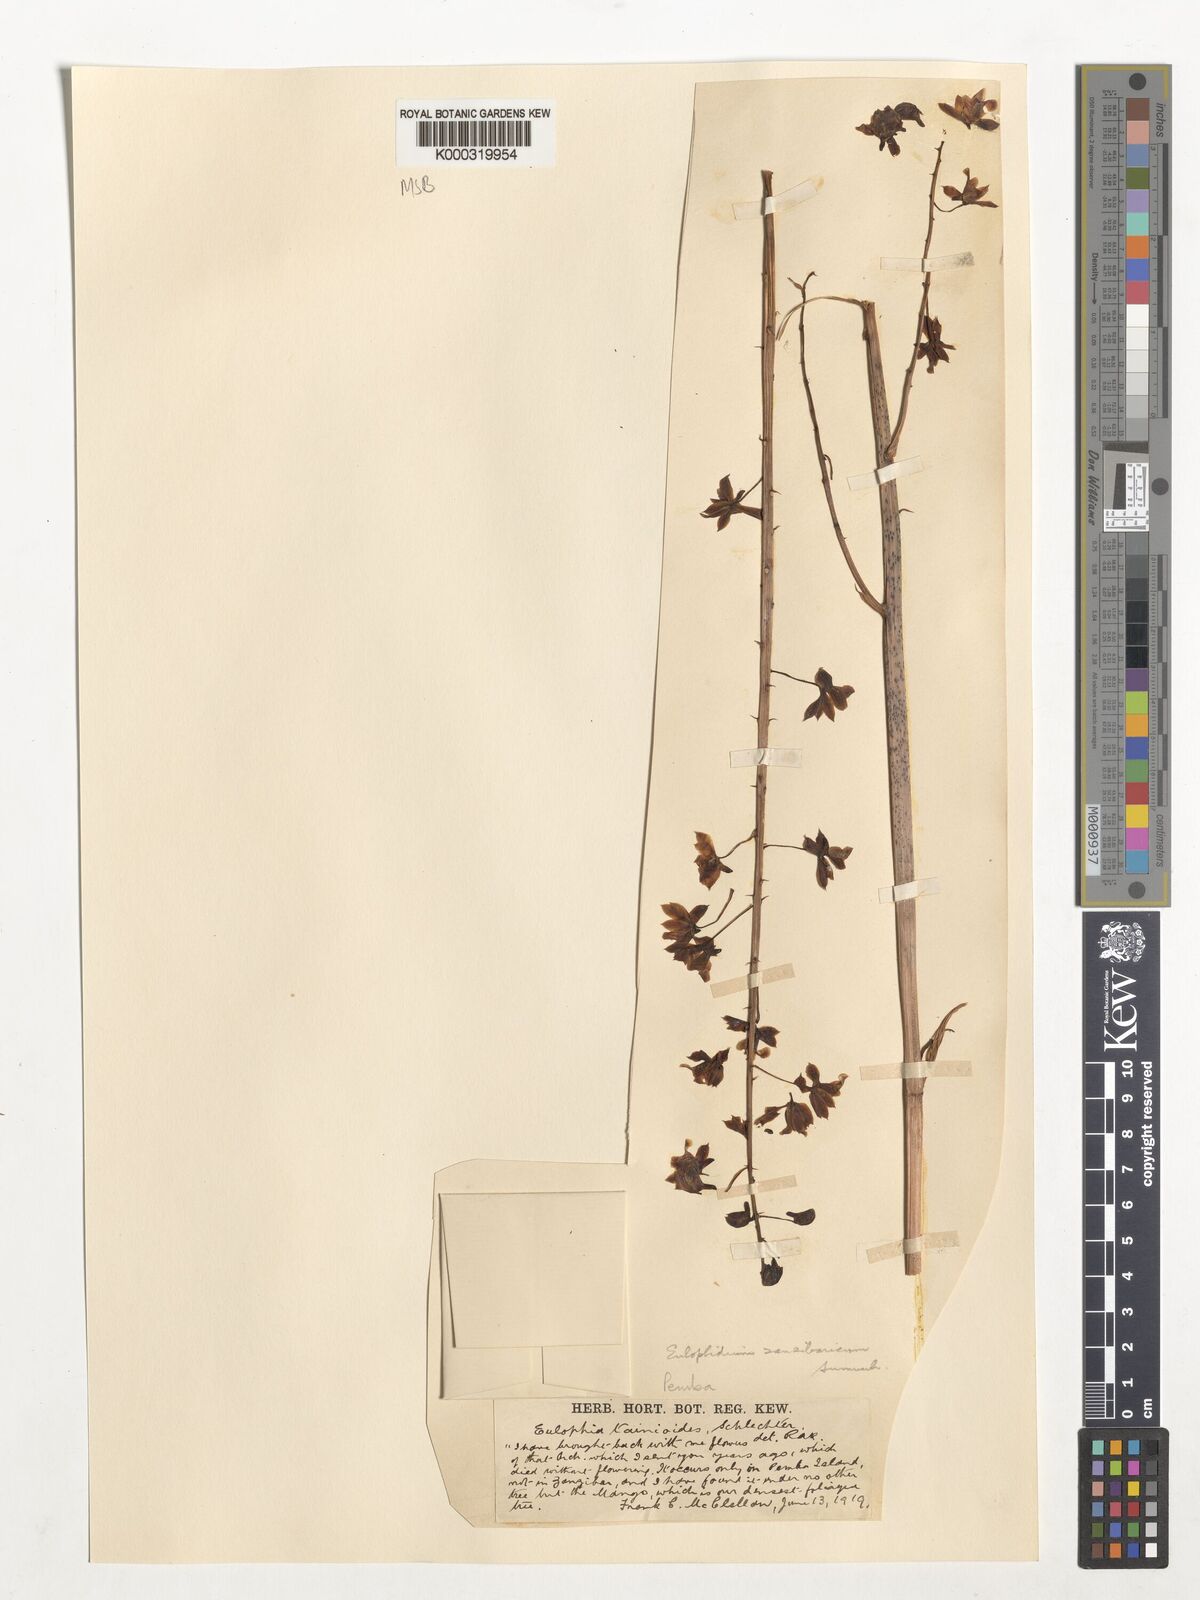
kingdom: Plantae
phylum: Tracheophyta
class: Liliopsida
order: Asparagales
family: Orchidaceae
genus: Eulophia
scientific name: Eulophia zanzibarica
